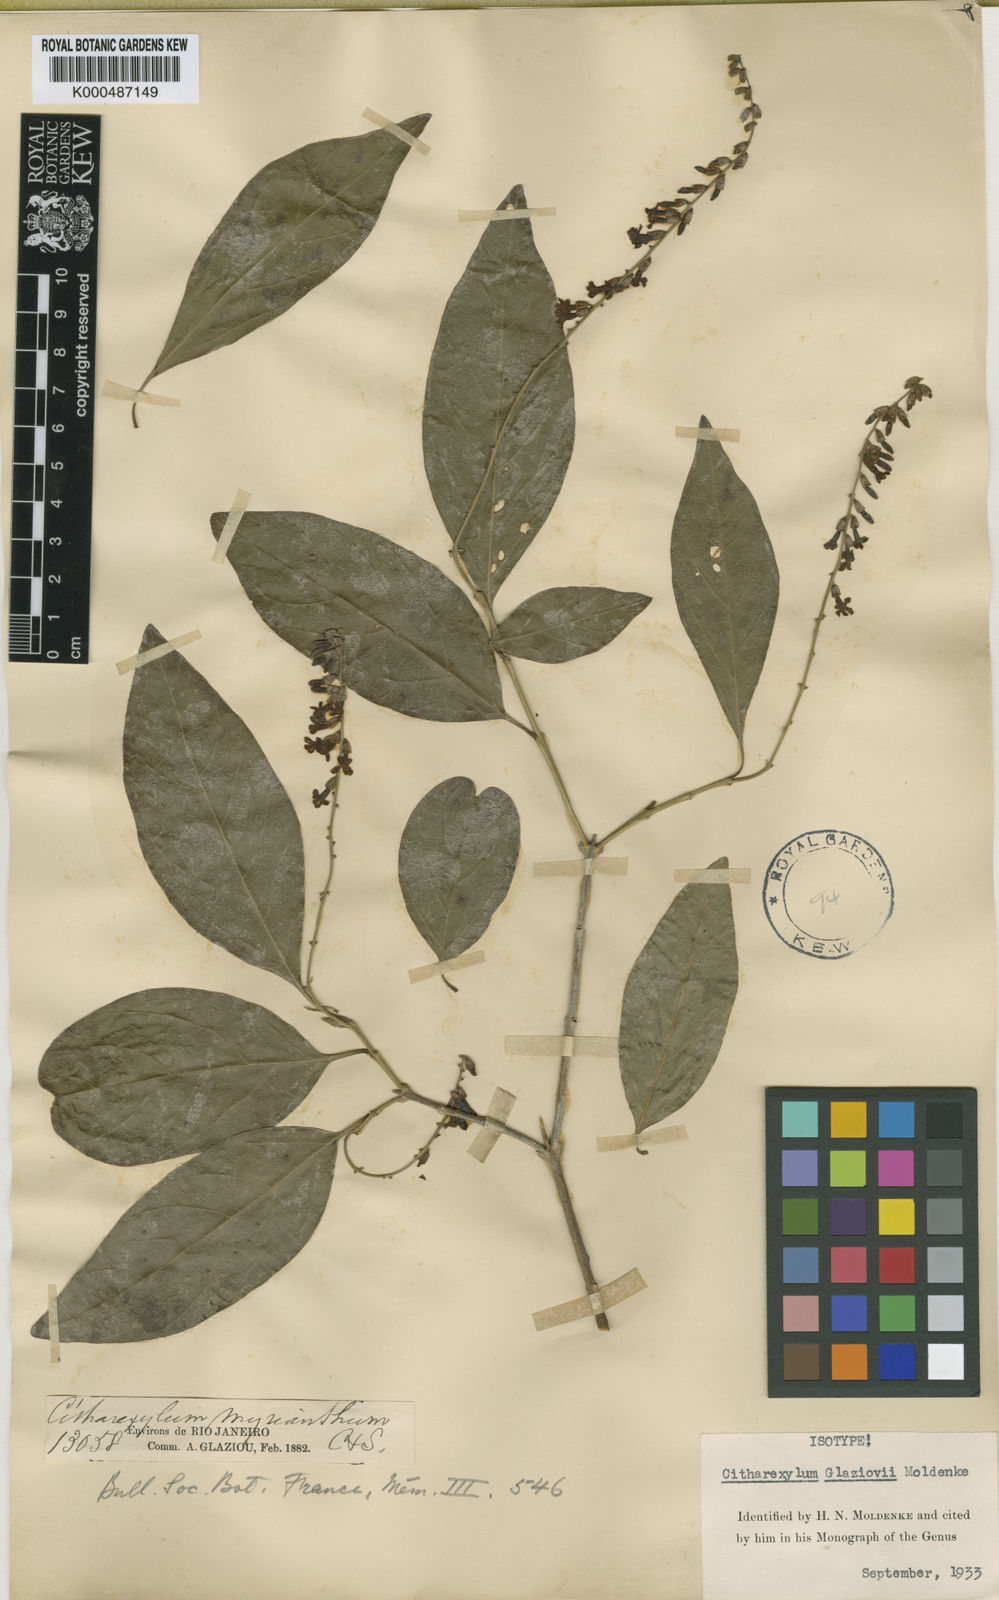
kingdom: Plantae
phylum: Tracheophyta
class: Magnoliopsida
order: Lamiales
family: Verbenaceae
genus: Citharexylum
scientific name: Citharexylum myrianthum
